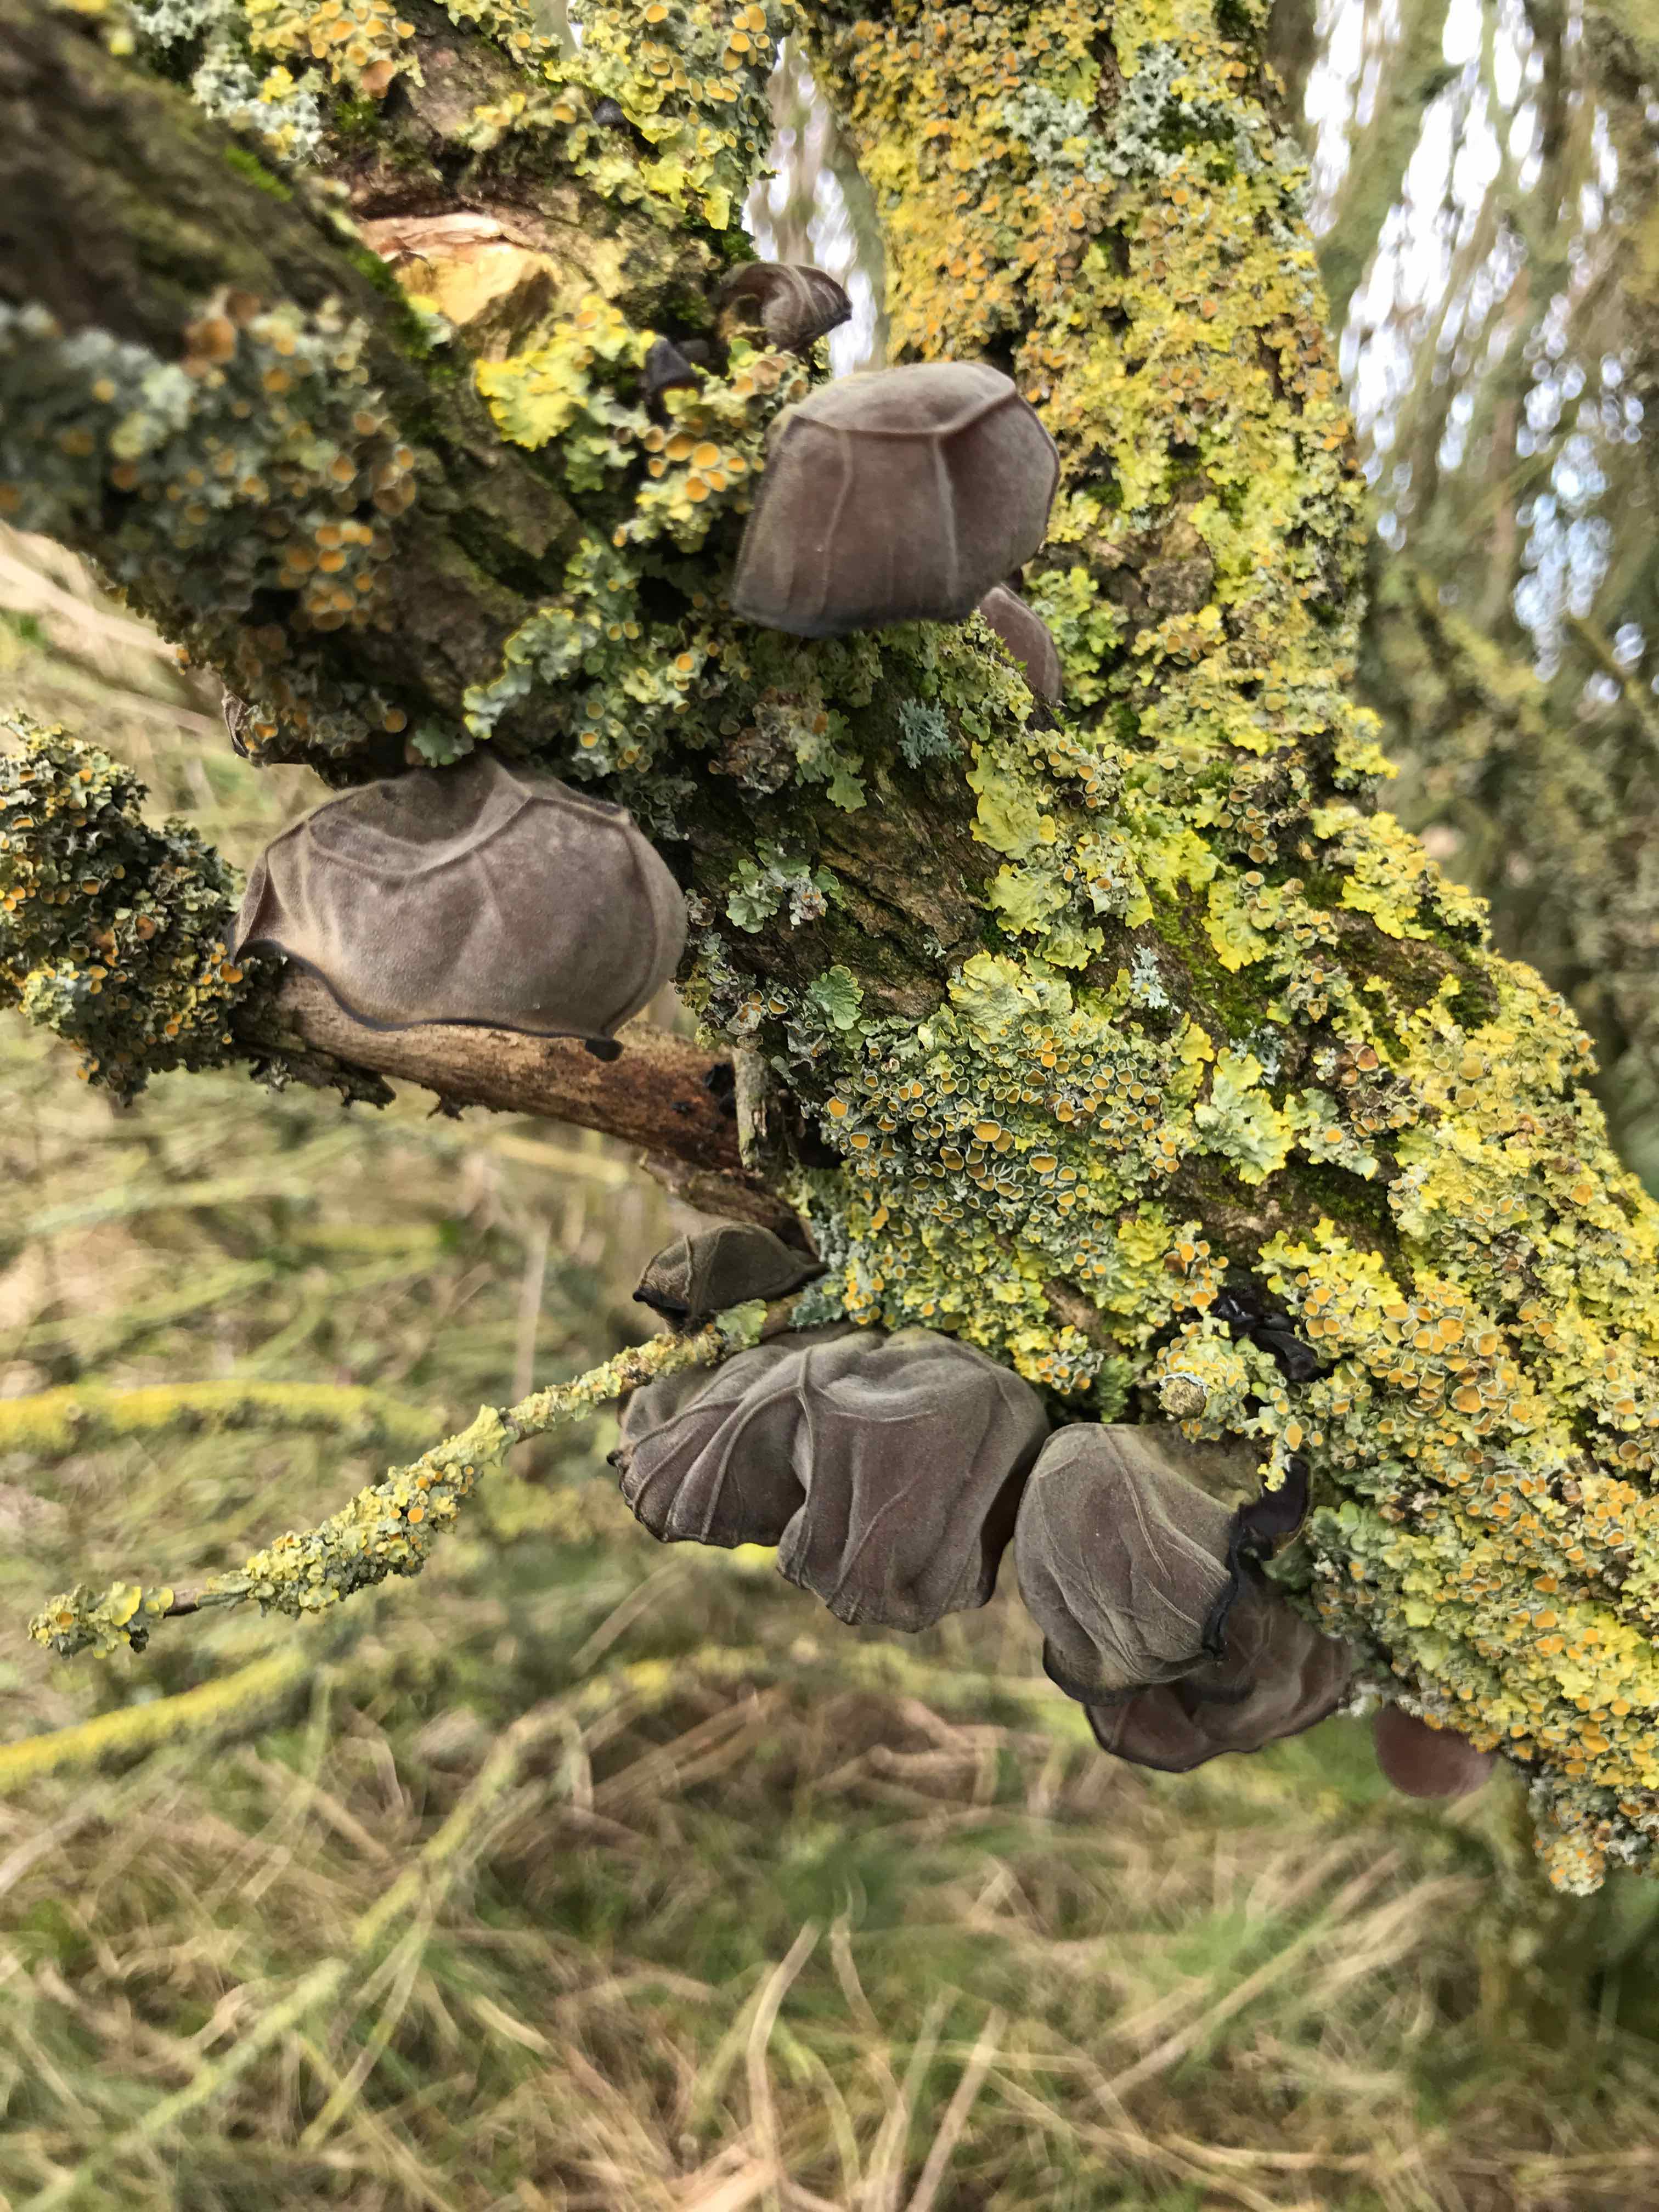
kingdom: Fungi
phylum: Basidiomycota
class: Agaricomycetes
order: Auriculariales
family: Auriculariaceae
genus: Auricularia
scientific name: Auricularia auricula-judae
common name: almindelig judasøre
